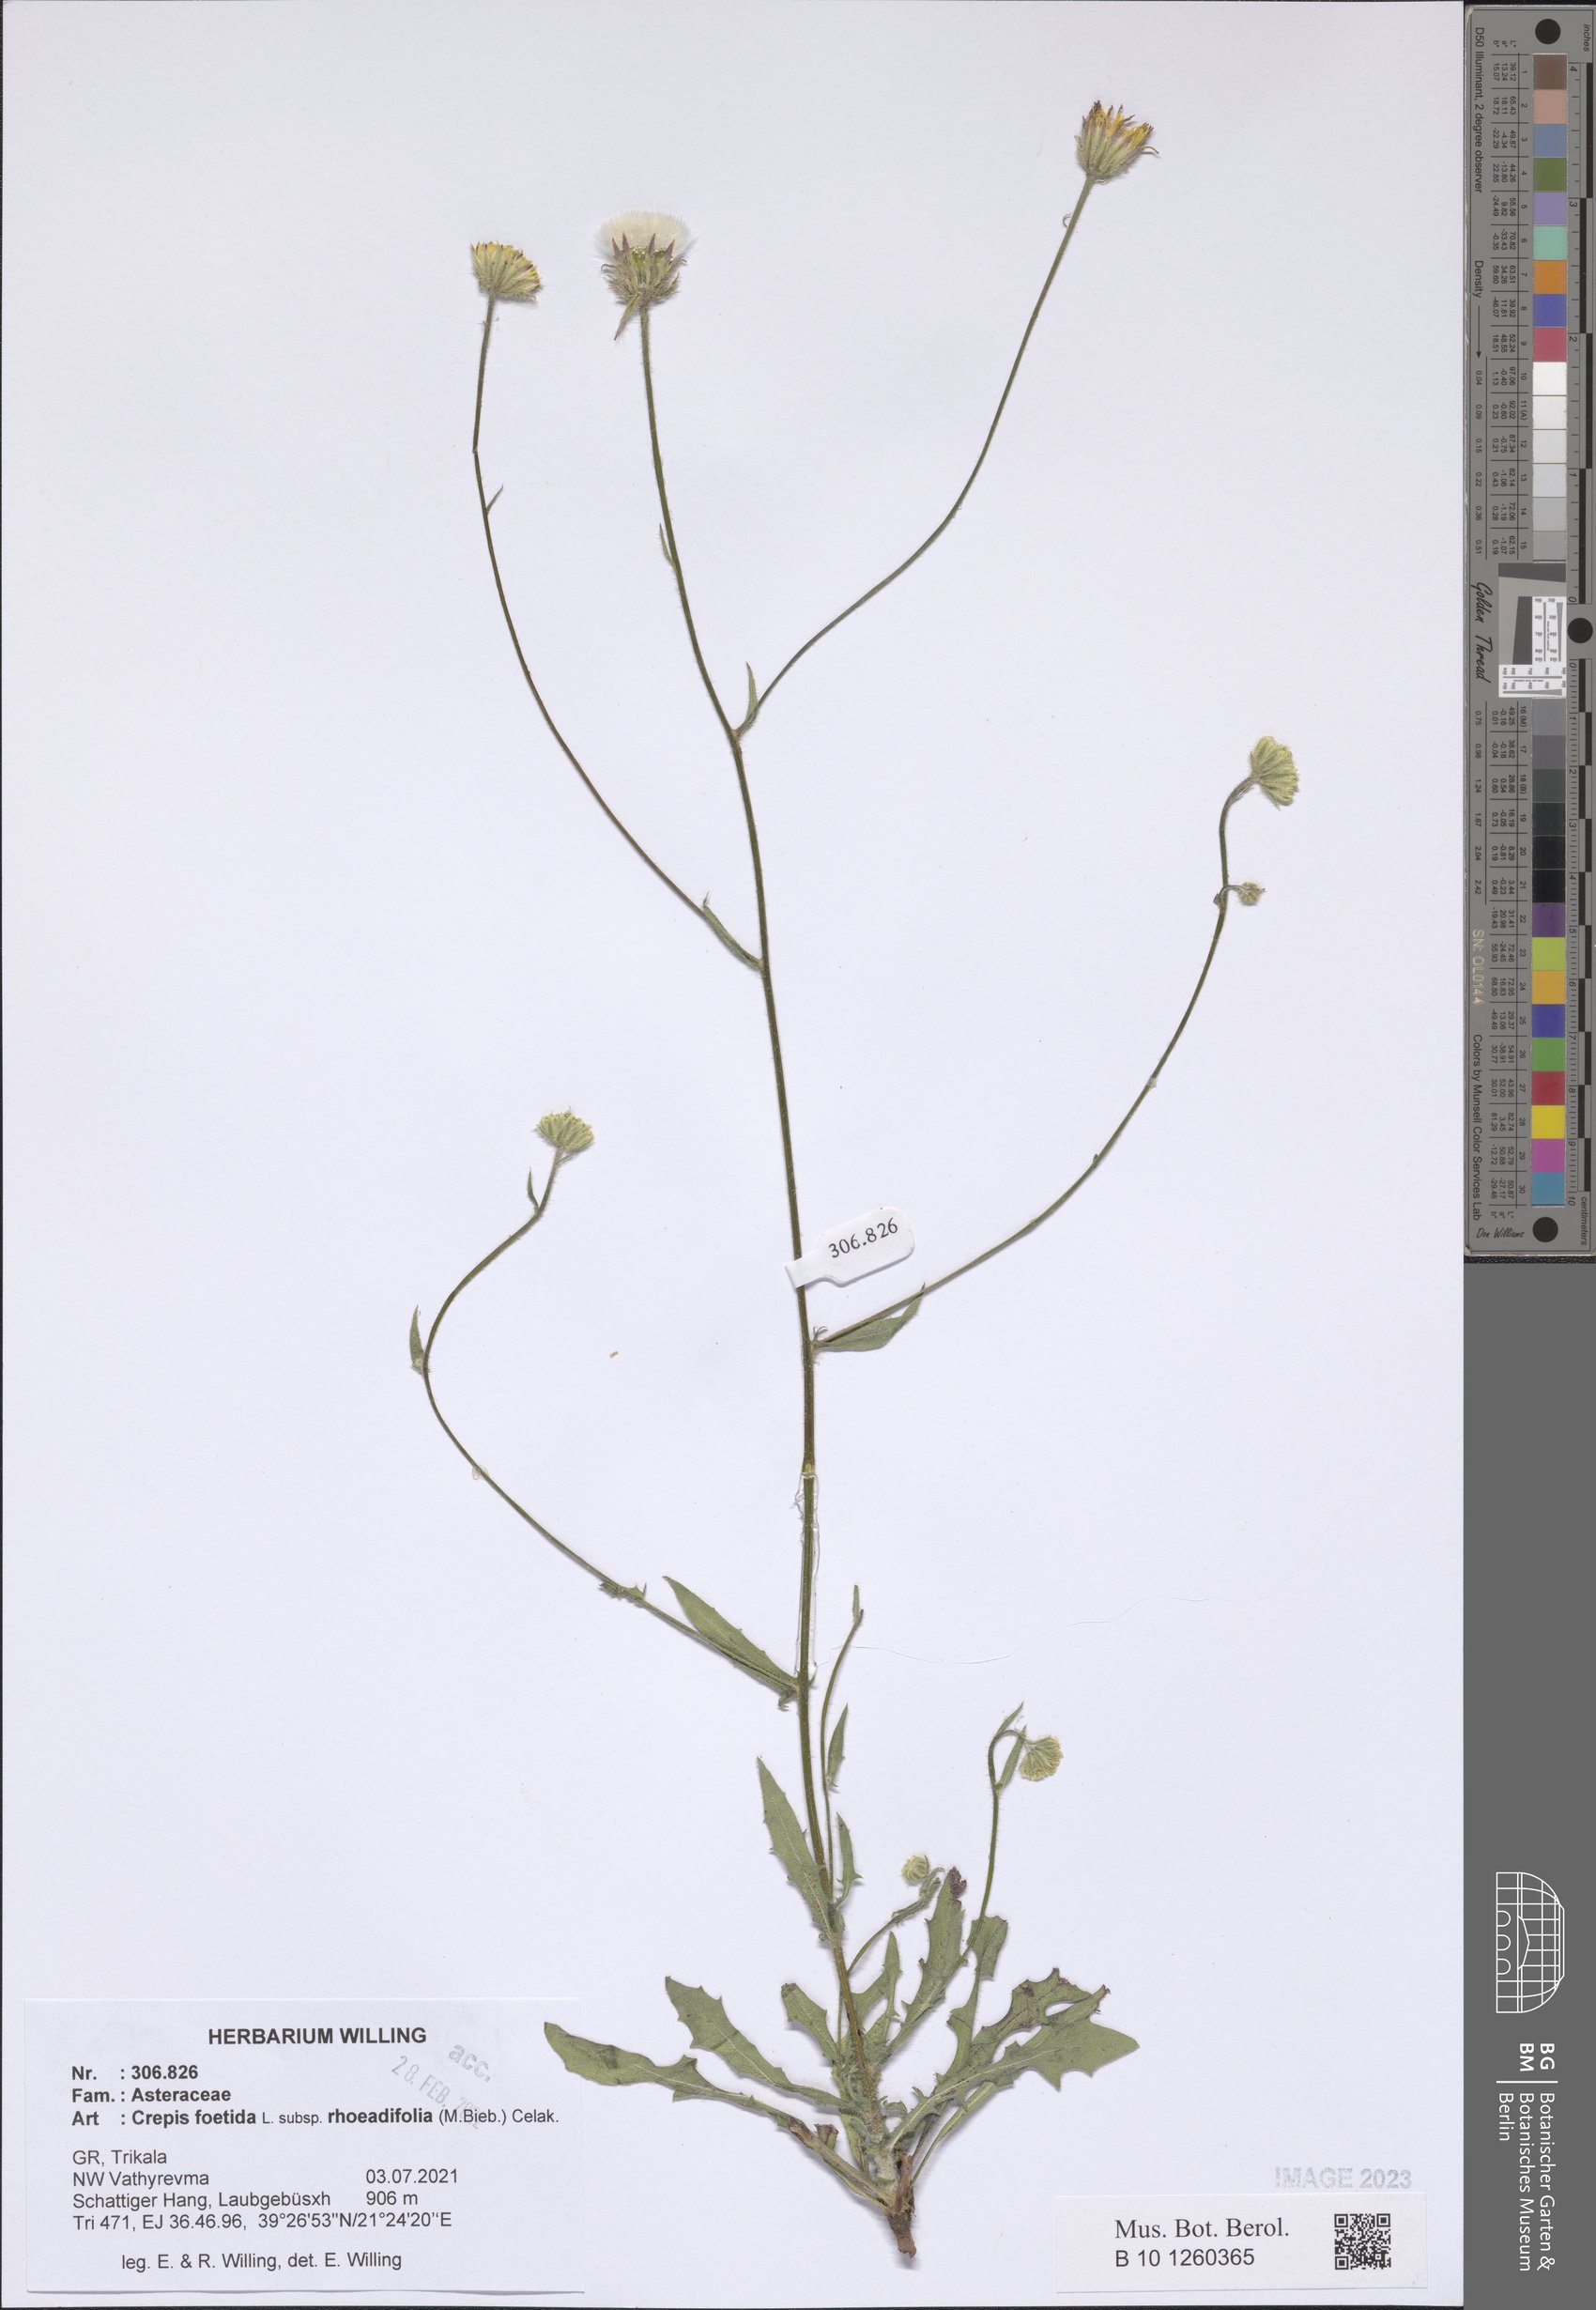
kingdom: Plantae
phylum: Tracheophyta
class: Magnoliopsida
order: Asterales
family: Asteraceae
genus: Crepis
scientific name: Crepis foetida
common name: Stinking hawk's-beard
